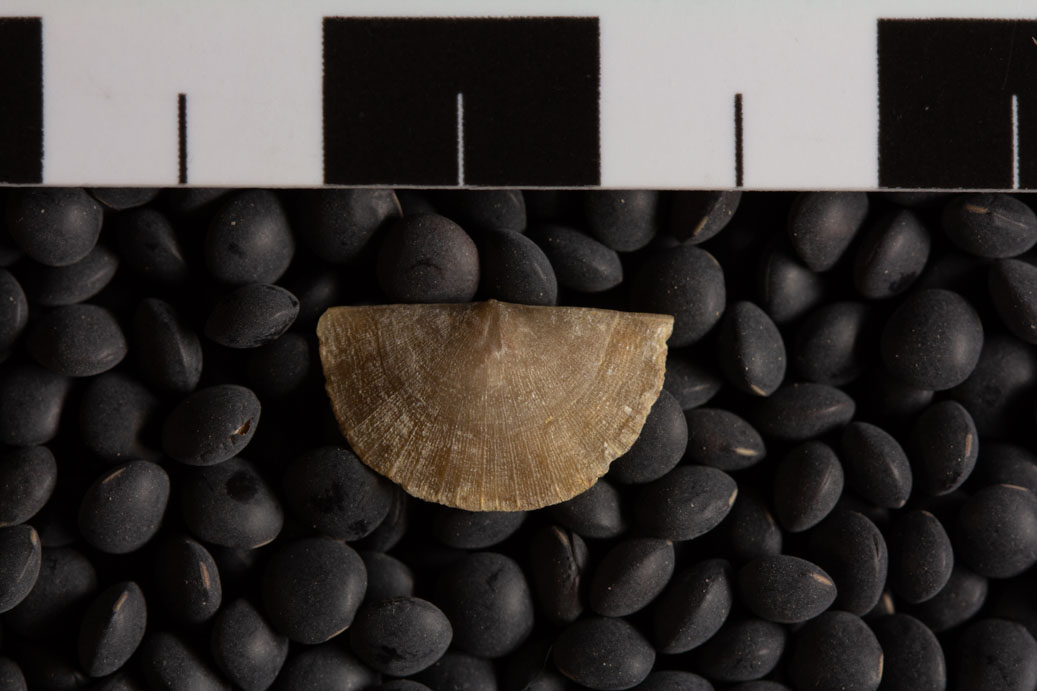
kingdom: Animalia
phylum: Brachiopoda
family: Sowerbyellidae
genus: Sowerbyella
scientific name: Sowerbyella Leptaena sericea
